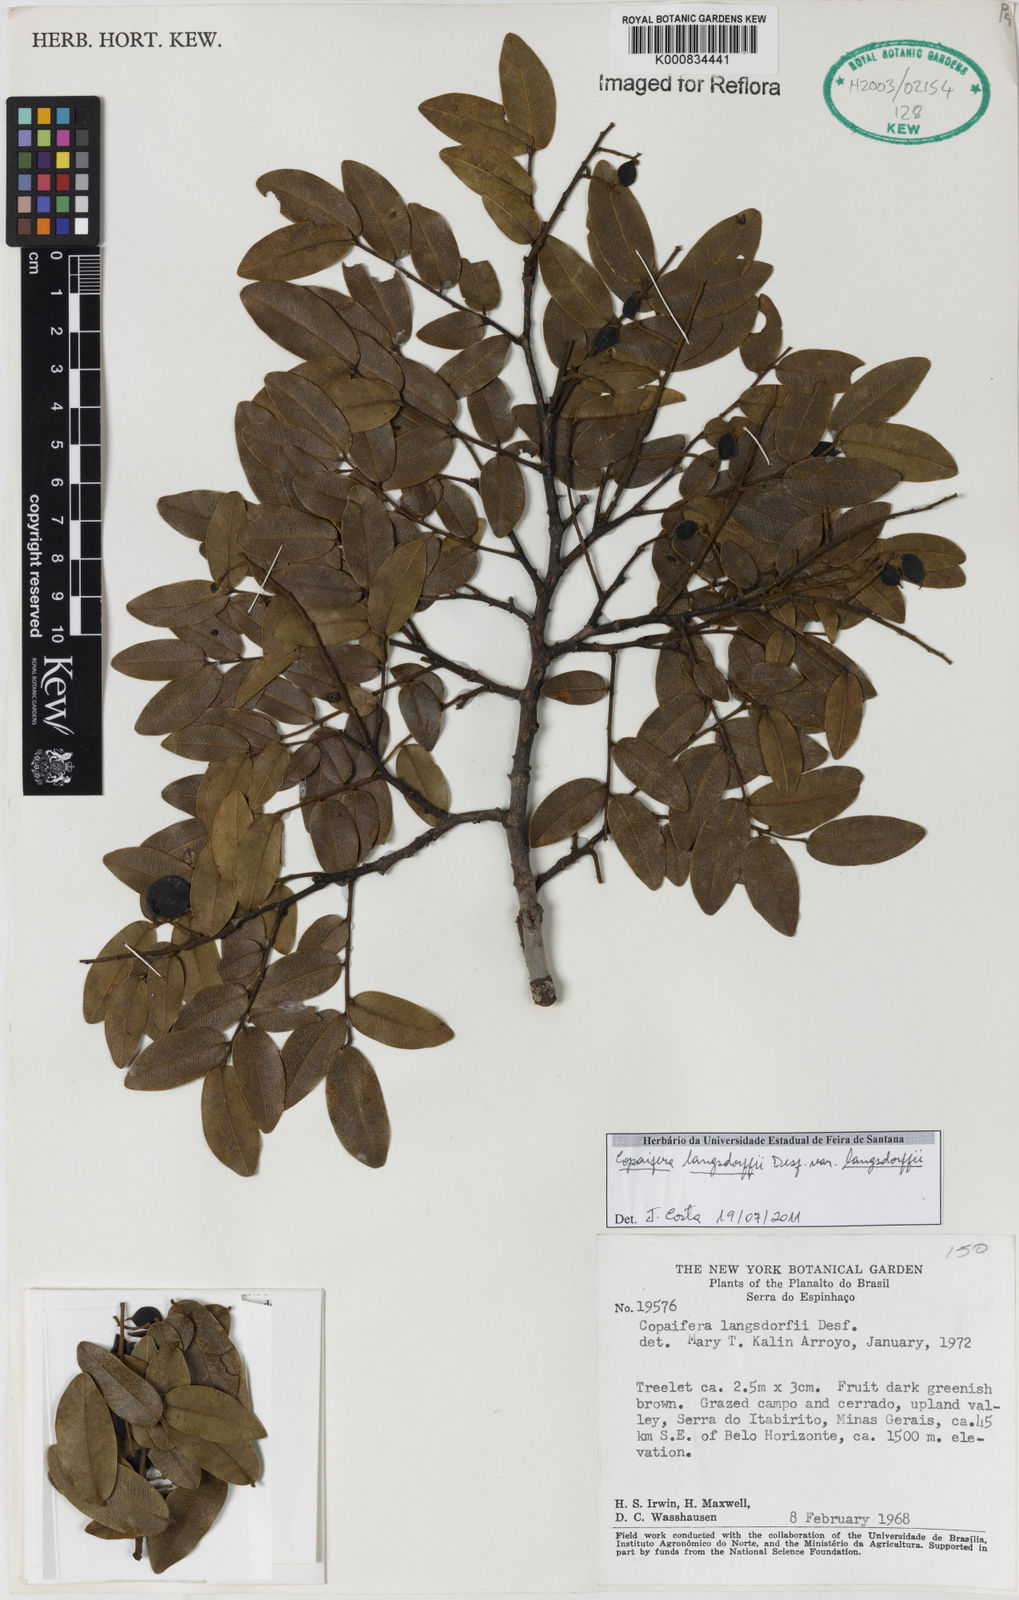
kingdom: Plantae
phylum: Tracheophyta
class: Magnoliopsida
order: Fabales
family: Fabaceae
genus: Copaifera
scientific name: Copaifera langsdorffii
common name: Brazilian diesel tree
